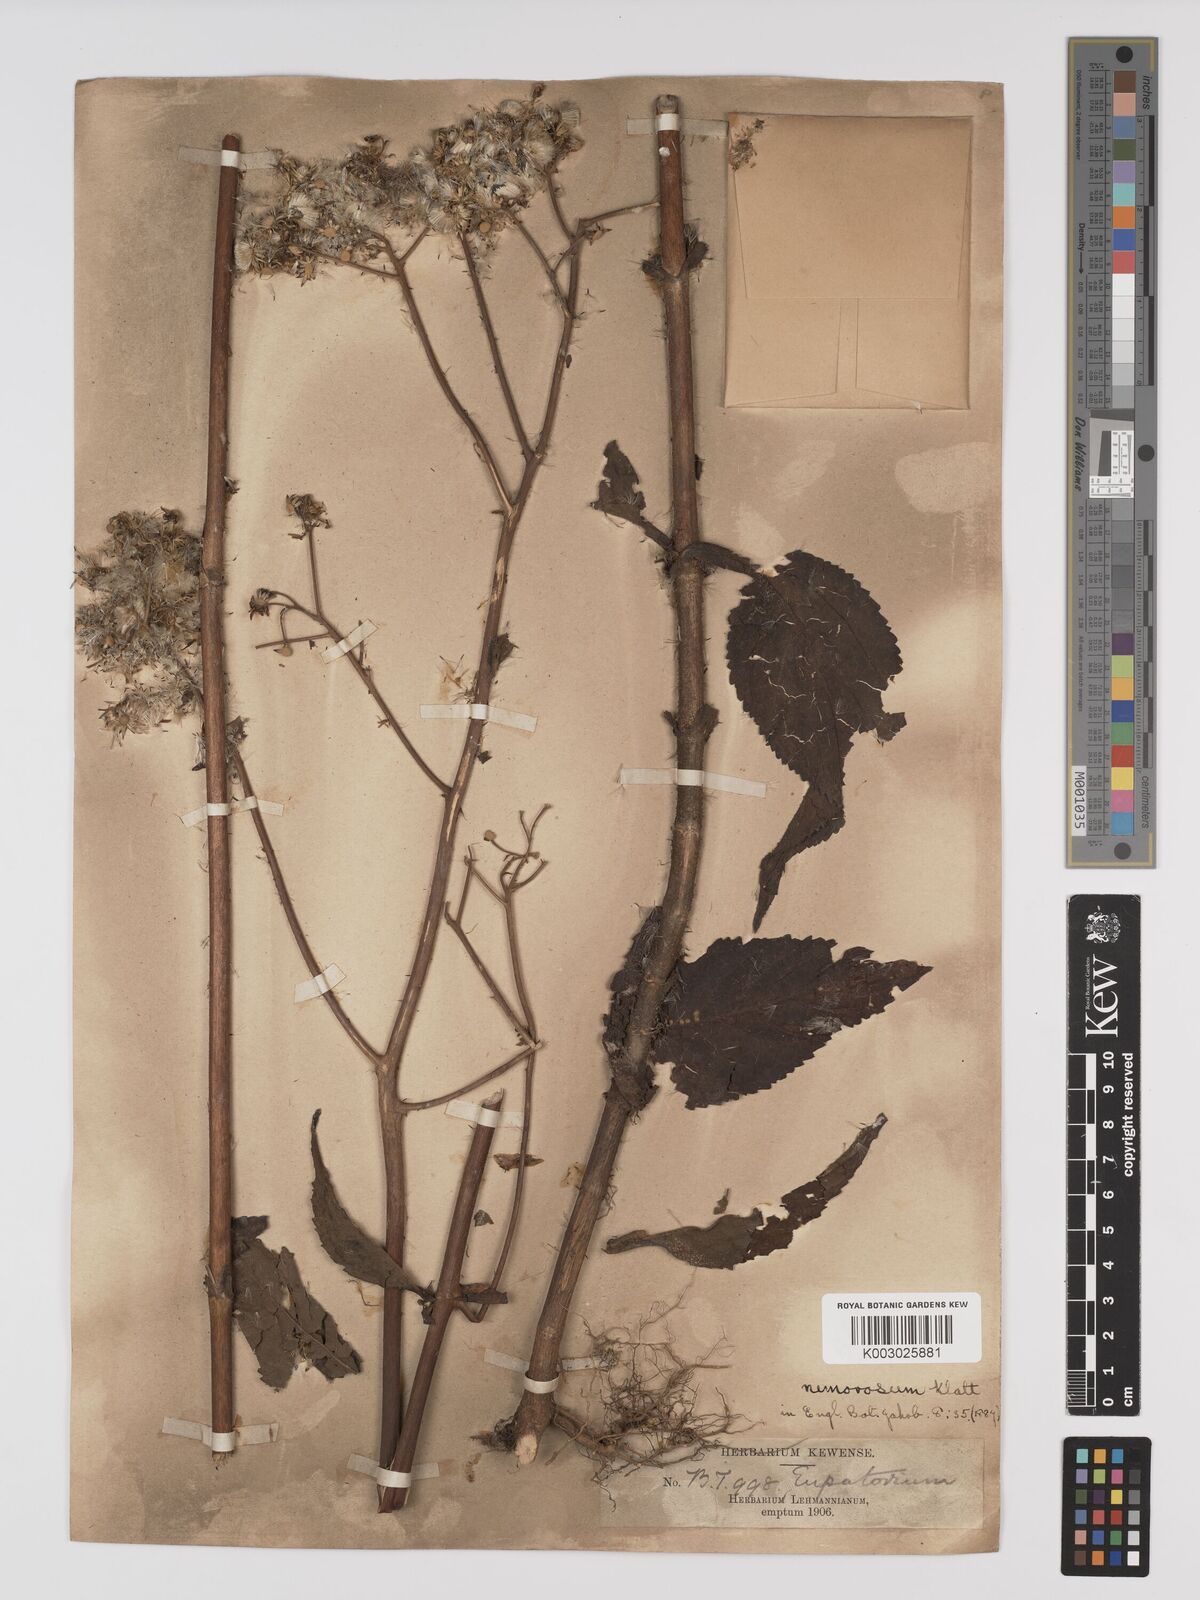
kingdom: Plantae
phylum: Tracheophyta
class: Magnoliopsida
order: Asterales
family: Asteraceae
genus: Polyanthina
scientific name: Polyanthina nemorosa
